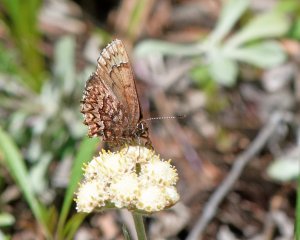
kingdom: Animalia
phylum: Arthropoda
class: Insecta
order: Lepidoptera
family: Lycaenidae
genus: Incisalia
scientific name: Incisalia eryphon
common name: Western Pine Elfin
